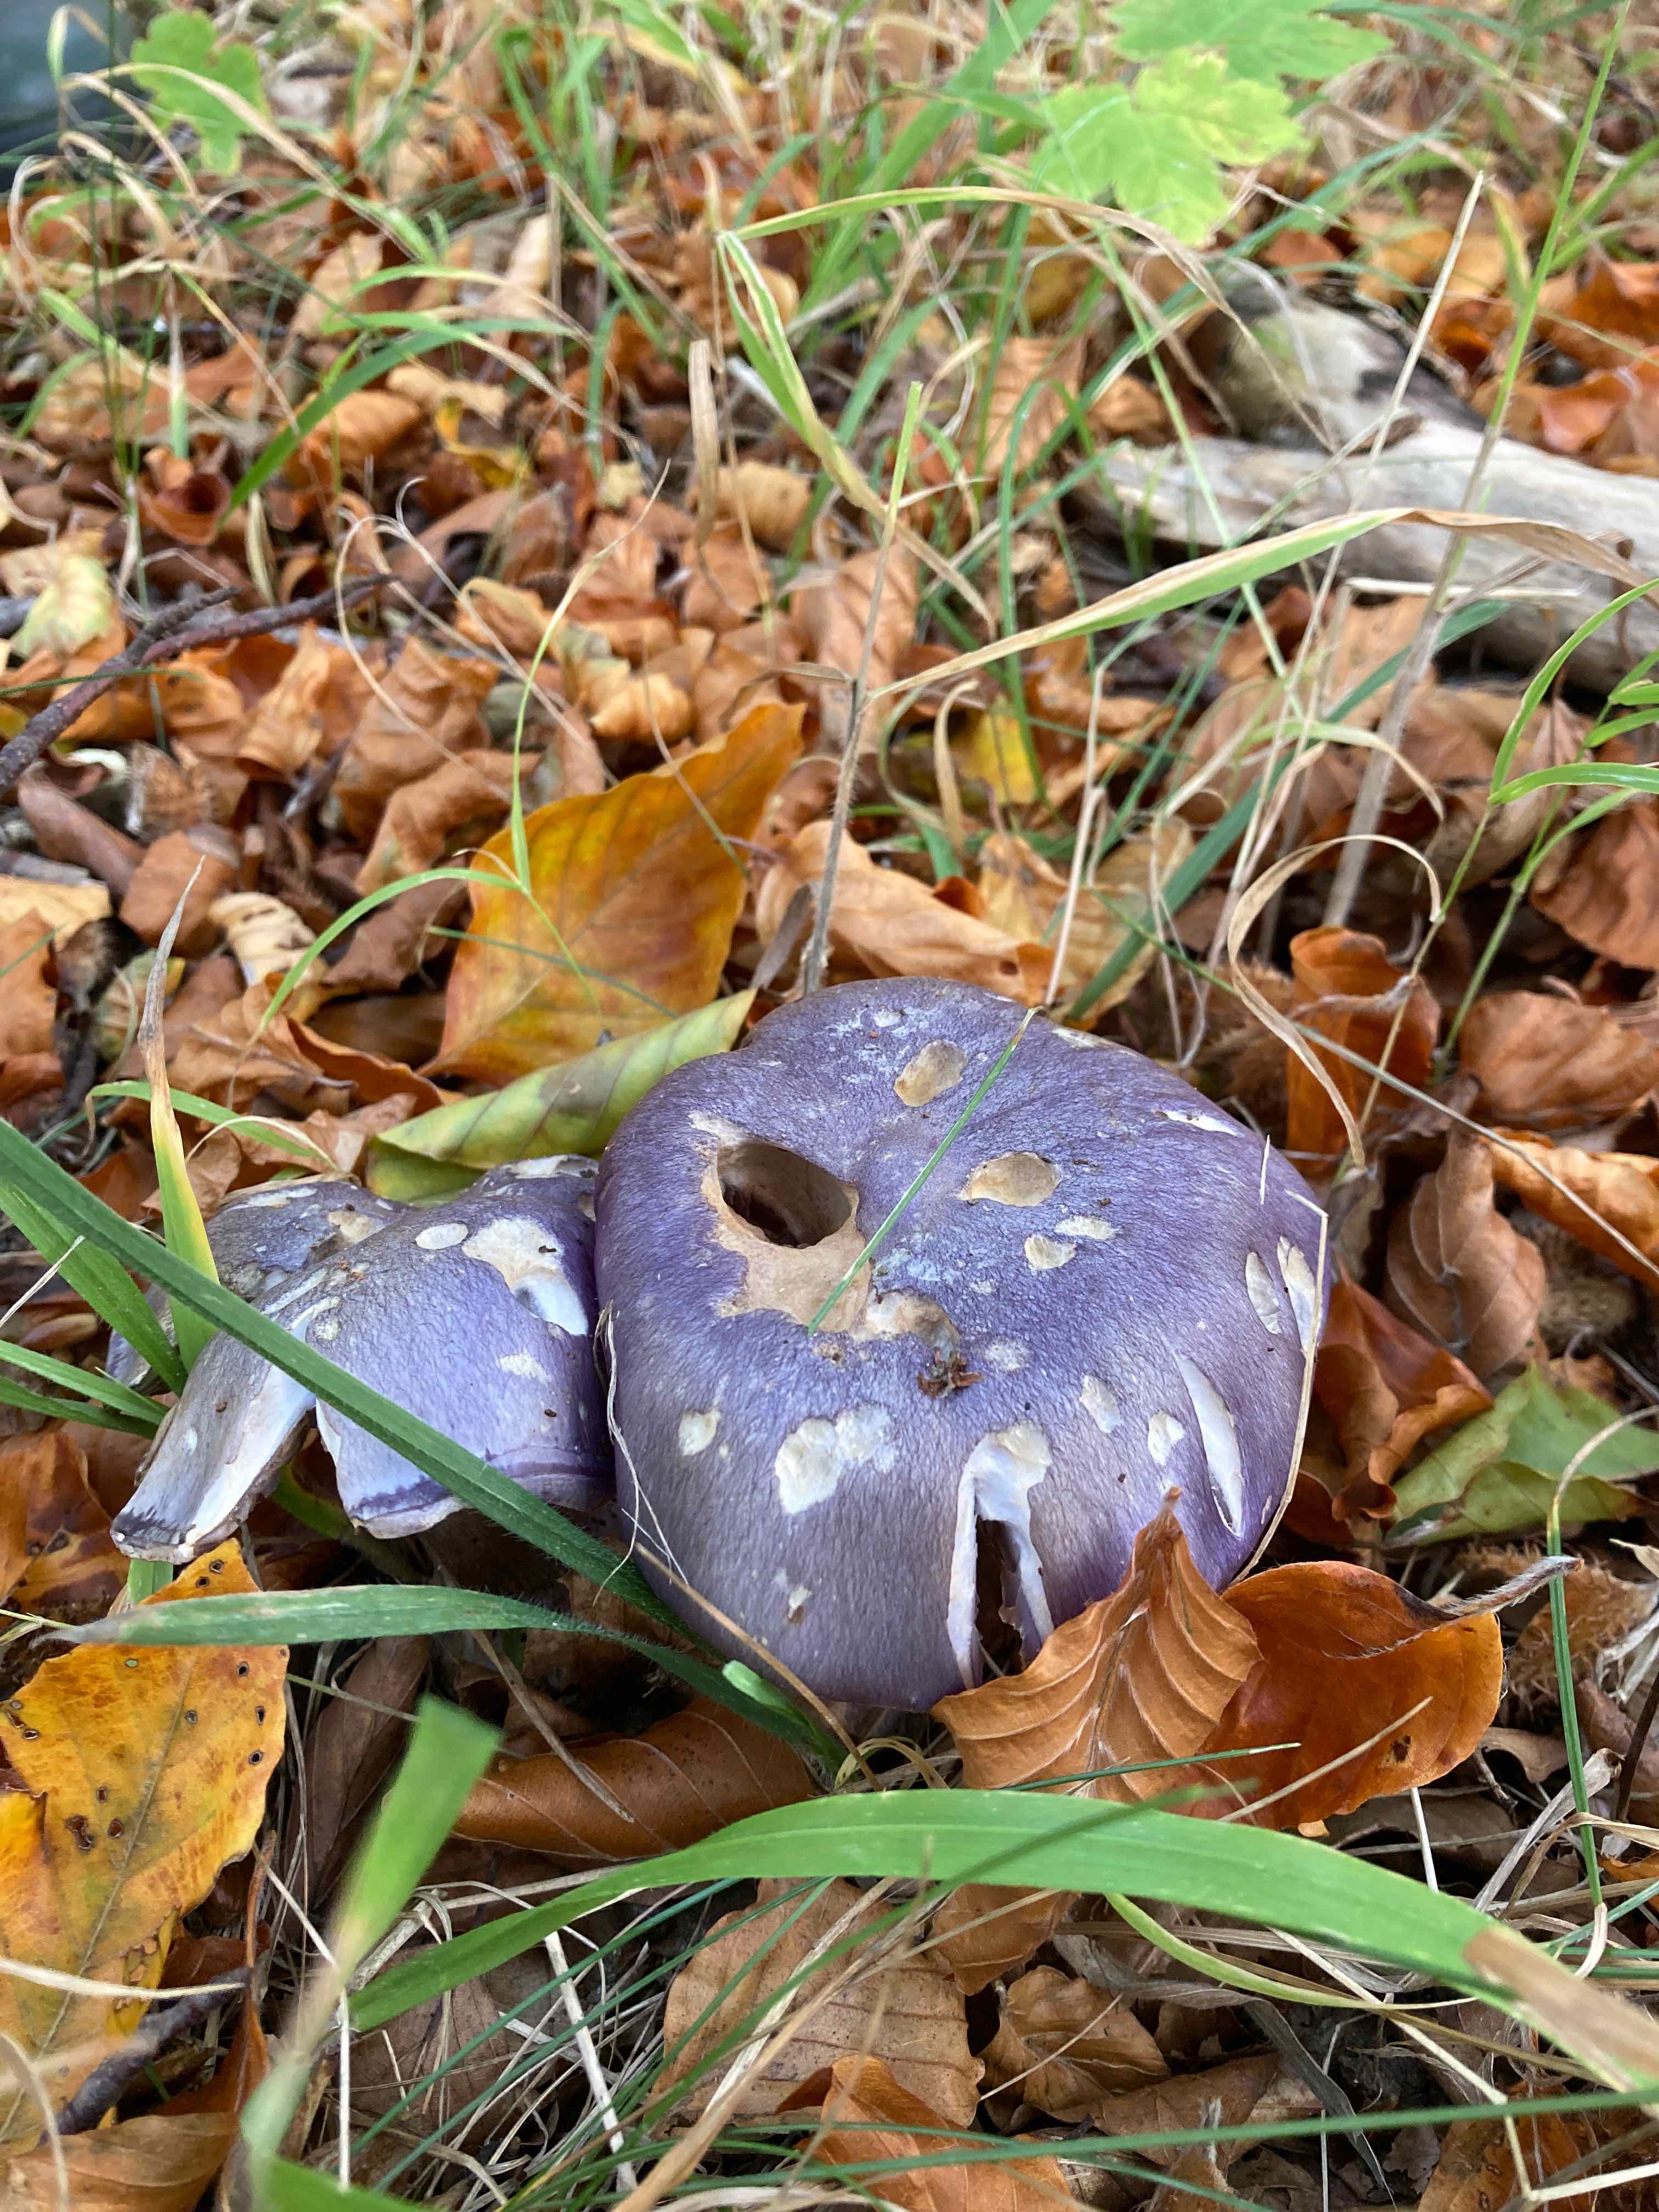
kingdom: Fungi
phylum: Basidiomycota
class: Agaricomycetes
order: Agaricales
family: Cortinariaceae
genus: Phlegmacium
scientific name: Phlegmacium eucaeruleum
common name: indigo-slørhat
